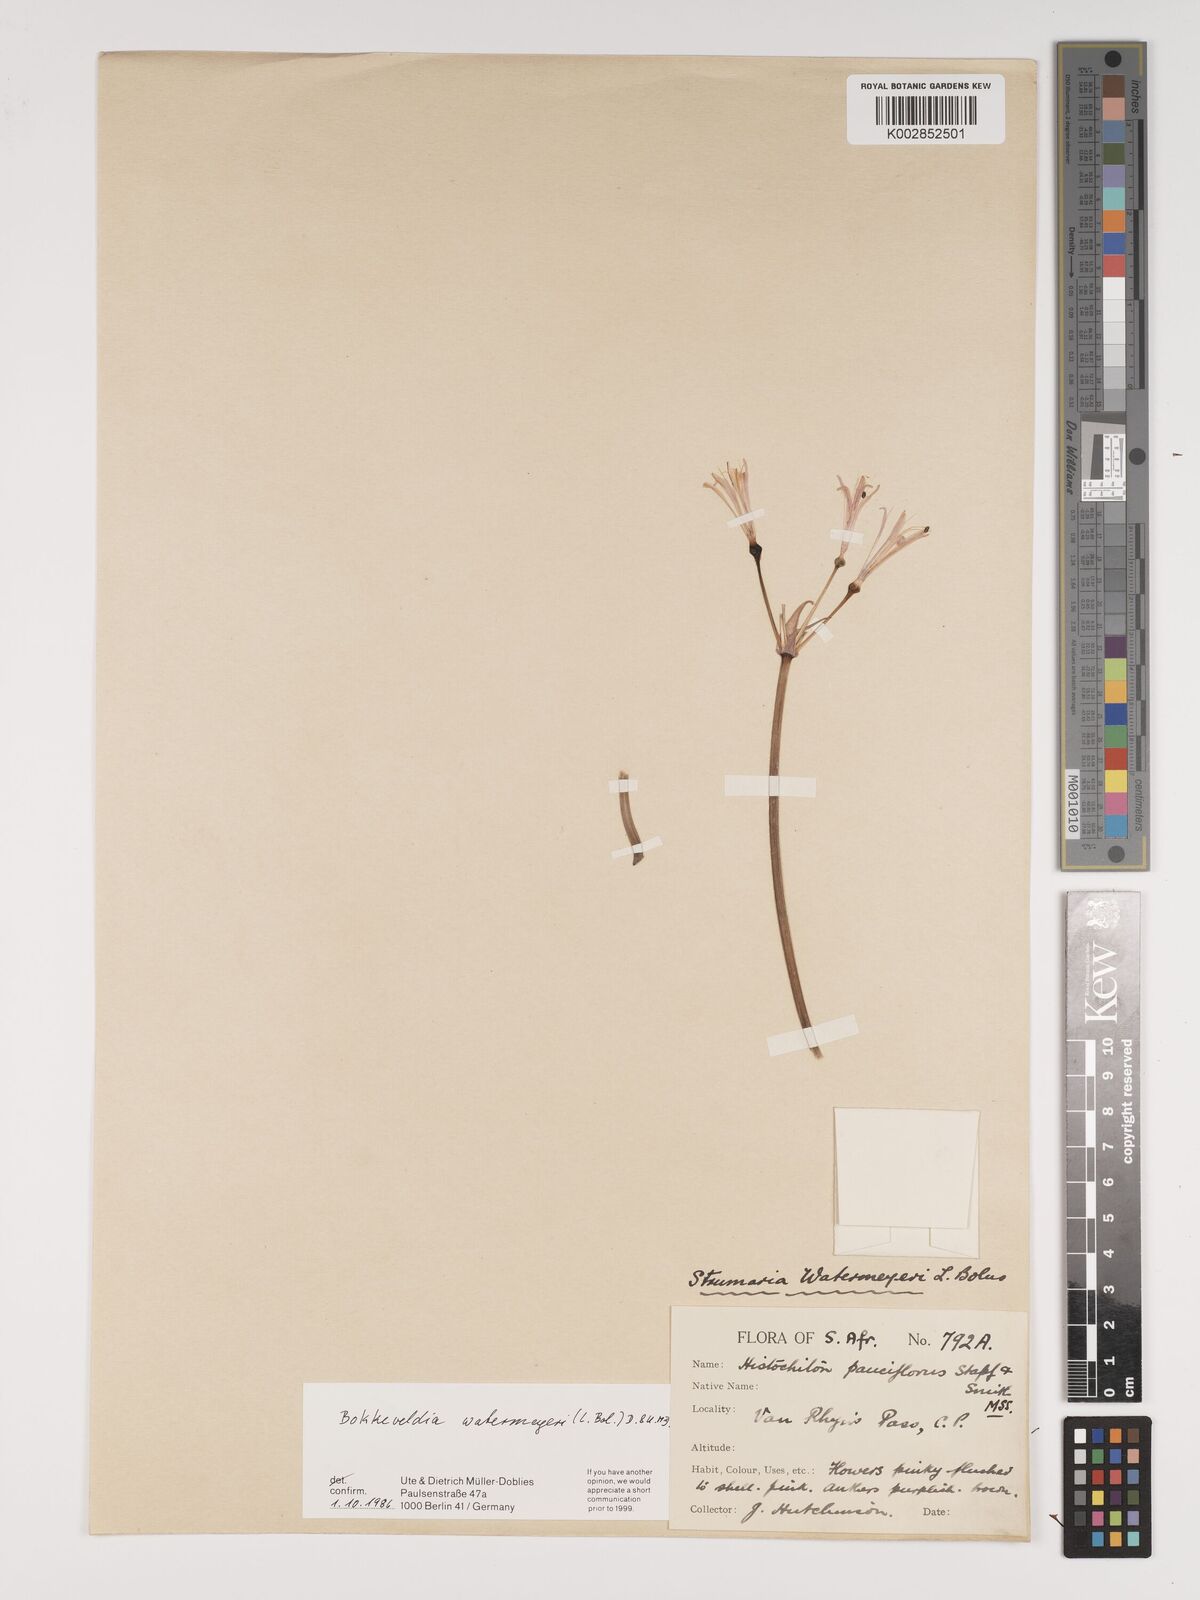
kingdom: Plantae
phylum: Tracheophyta
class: Liliopsida
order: Asparagales
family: Amaryllidaceae
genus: Strumaria
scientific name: Strumaria watermeyeri
